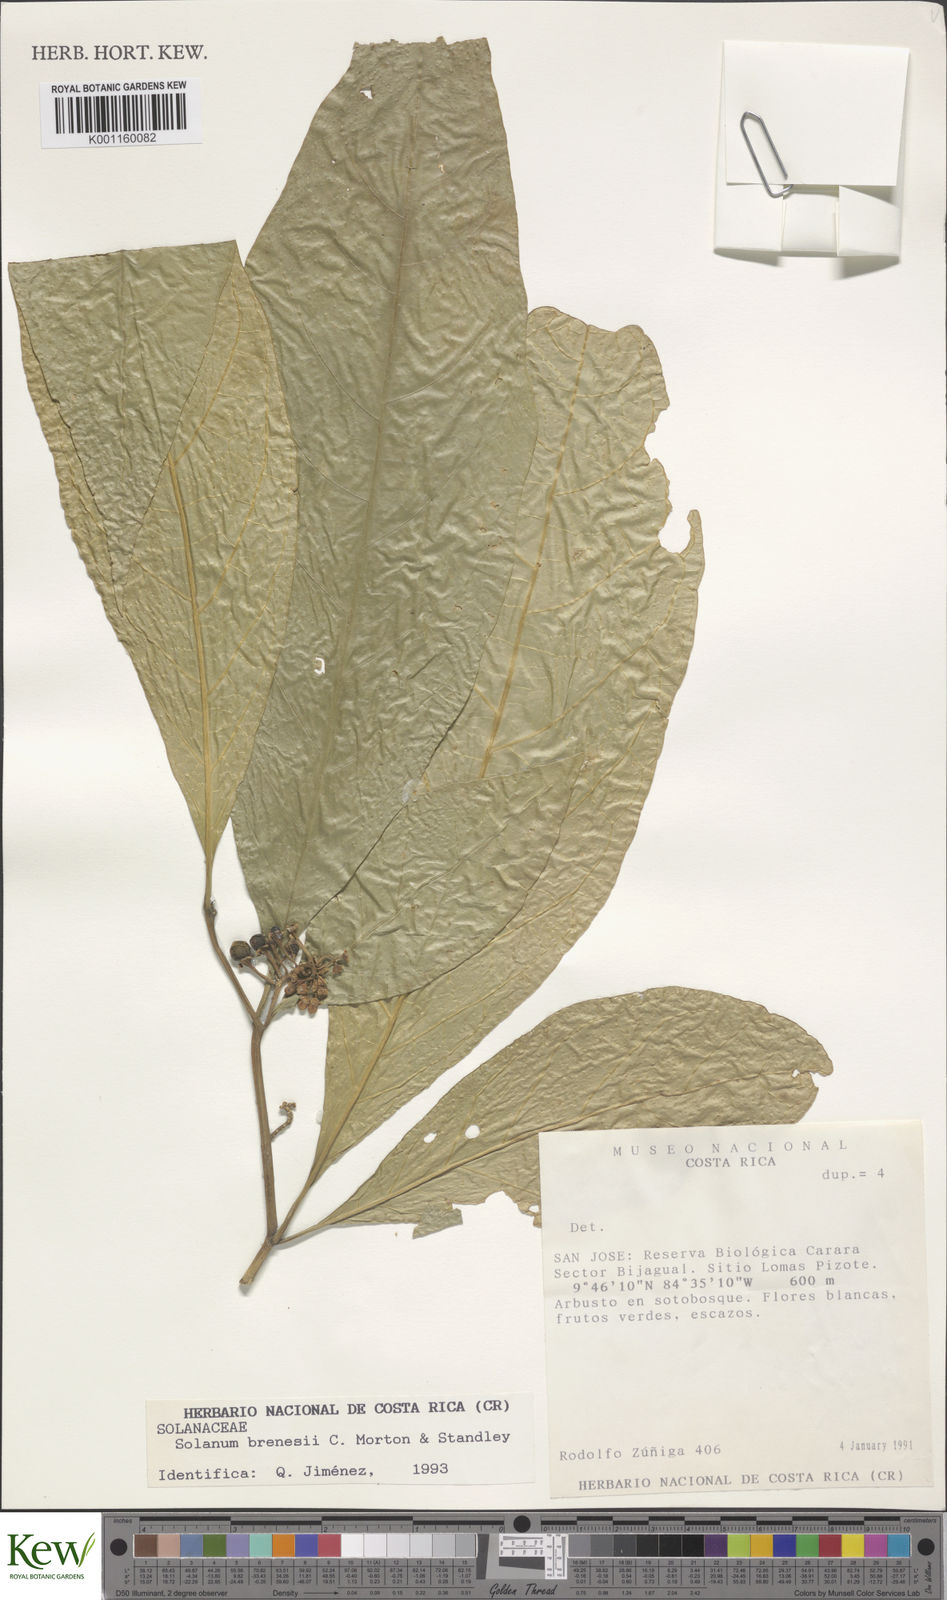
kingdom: Plantae
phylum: Tracheophyta
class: Magnoliopsida
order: Solanales
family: Solanaceae
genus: Solanum
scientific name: Solanum rovirosanum
